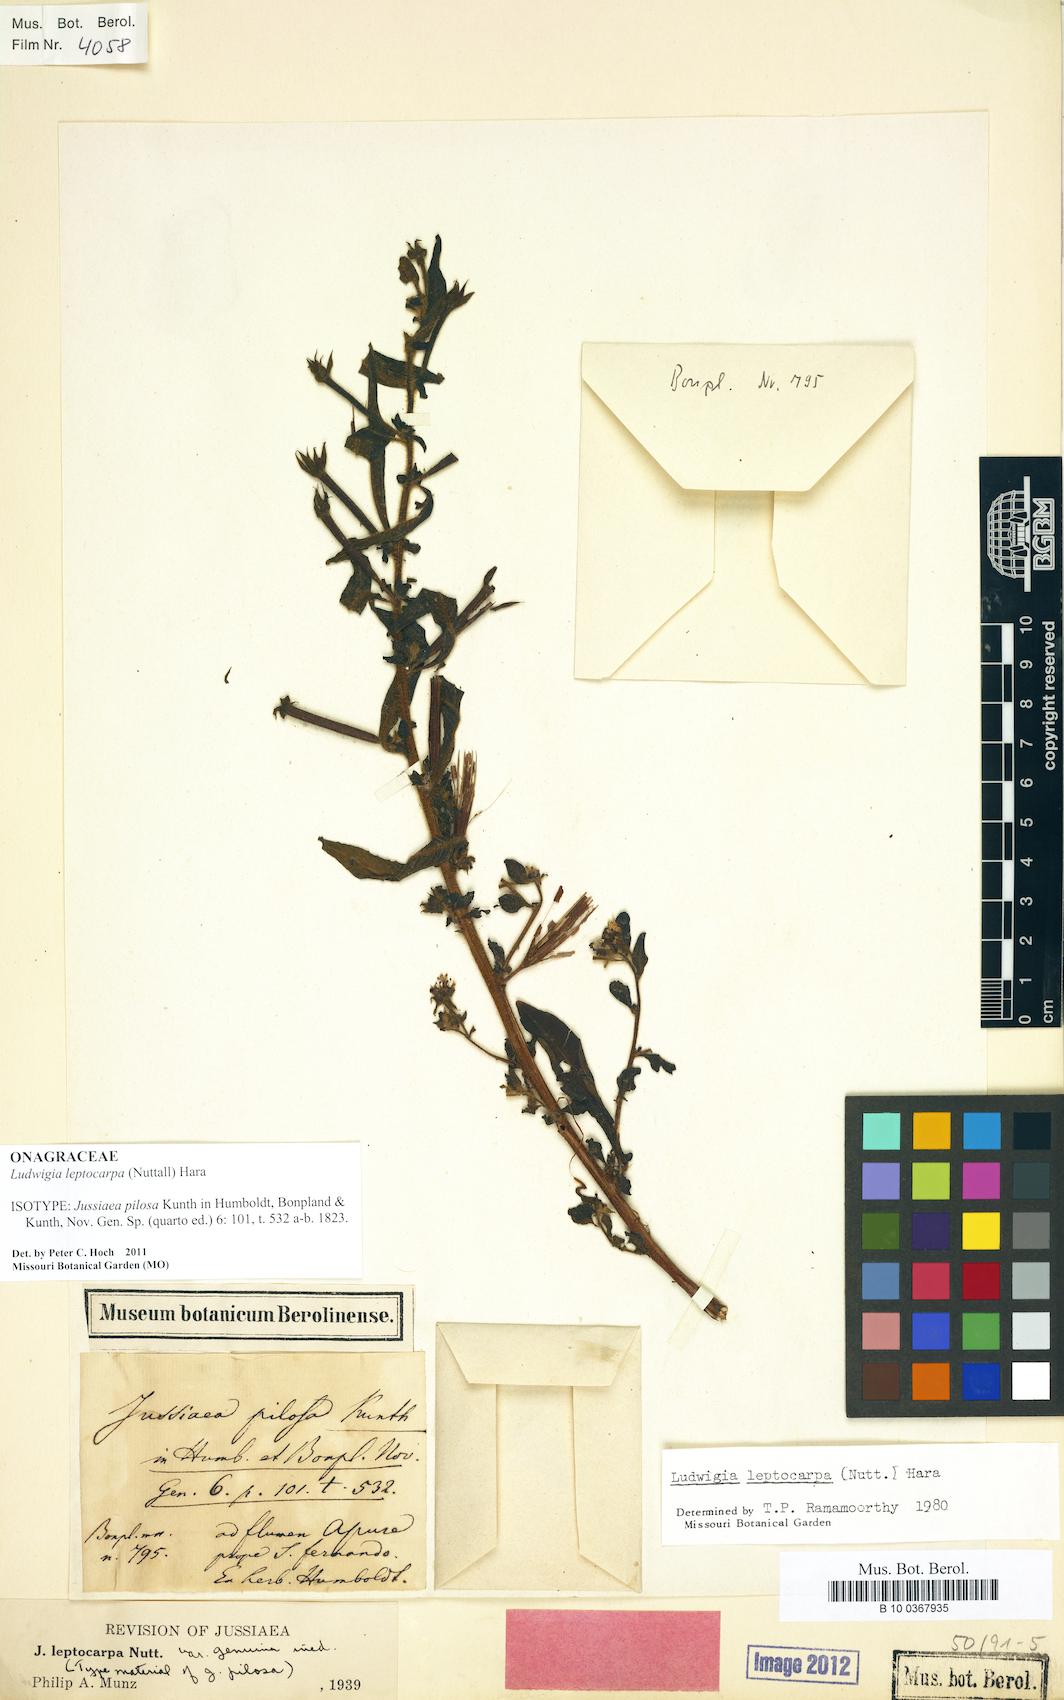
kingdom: Plantae
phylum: Tracheophyta
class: Magnoliopsida
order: Myrtales
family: Onagraceae
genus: Ludwigia
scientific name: Ludwigia leptocarpa
